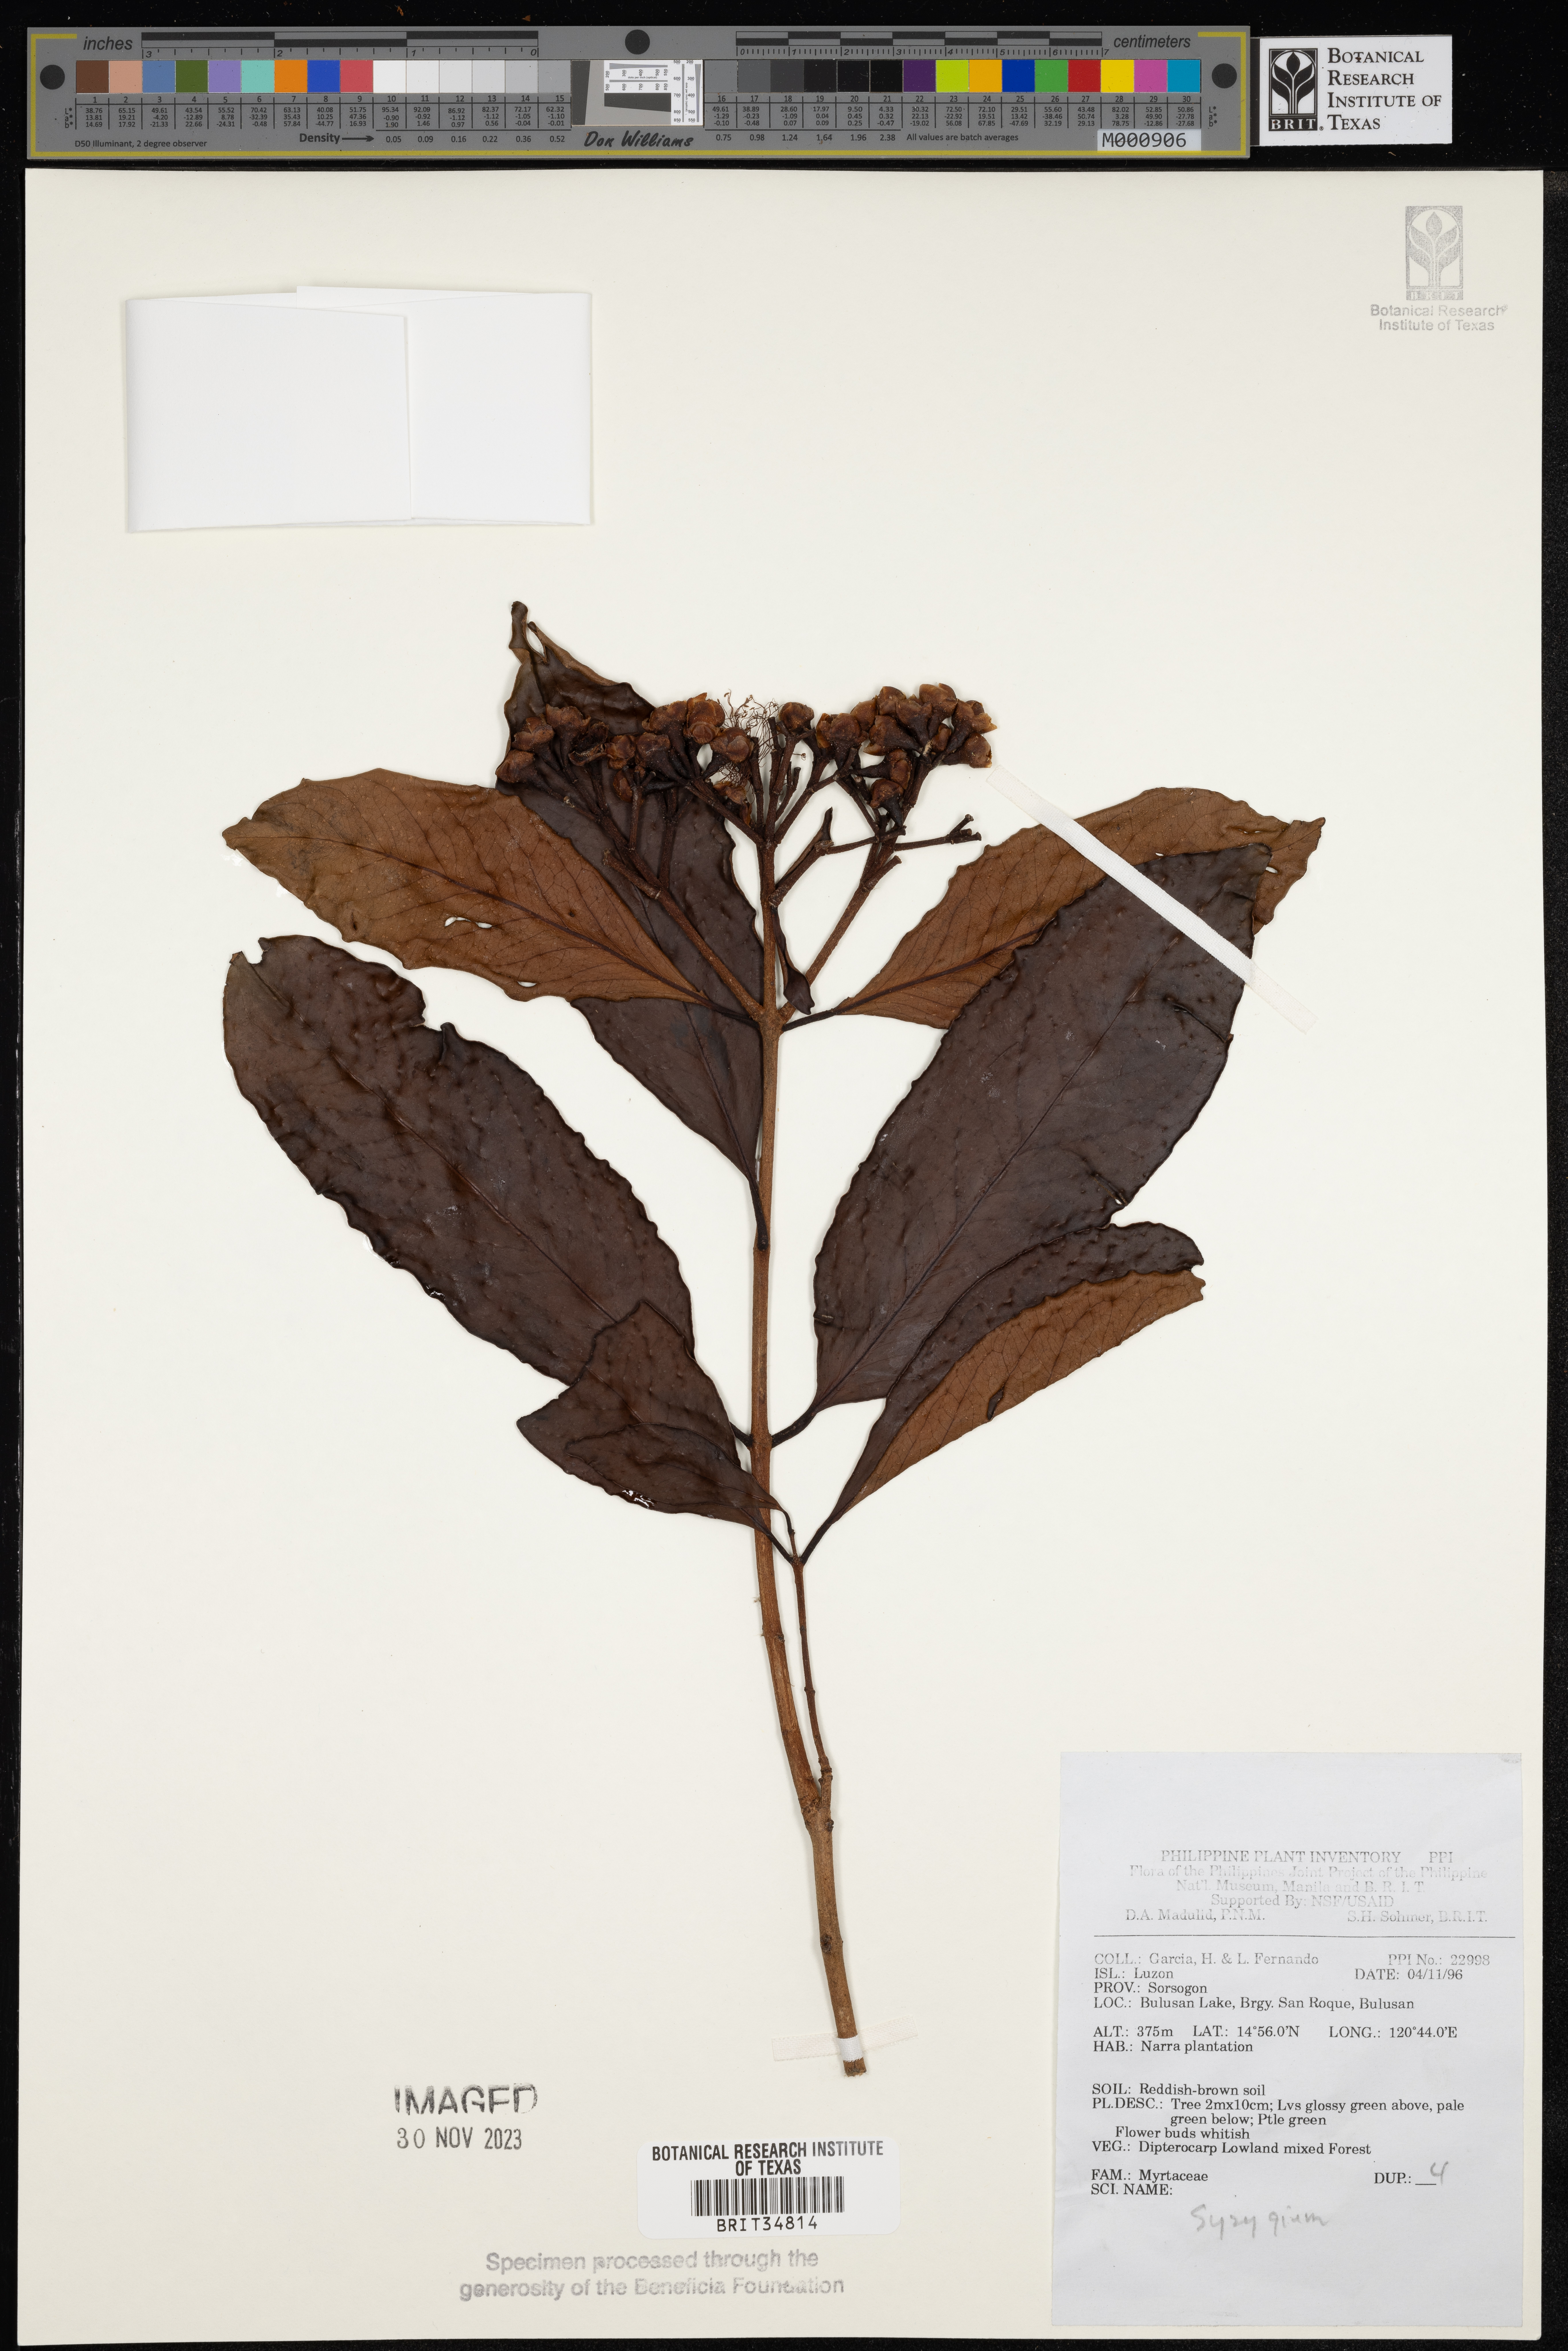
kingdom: Plantae
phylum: Tracheophyta
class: Magnoliopsida
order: Myrtales
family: Myrtaceae
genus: Syzygium
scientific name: Syzygium
